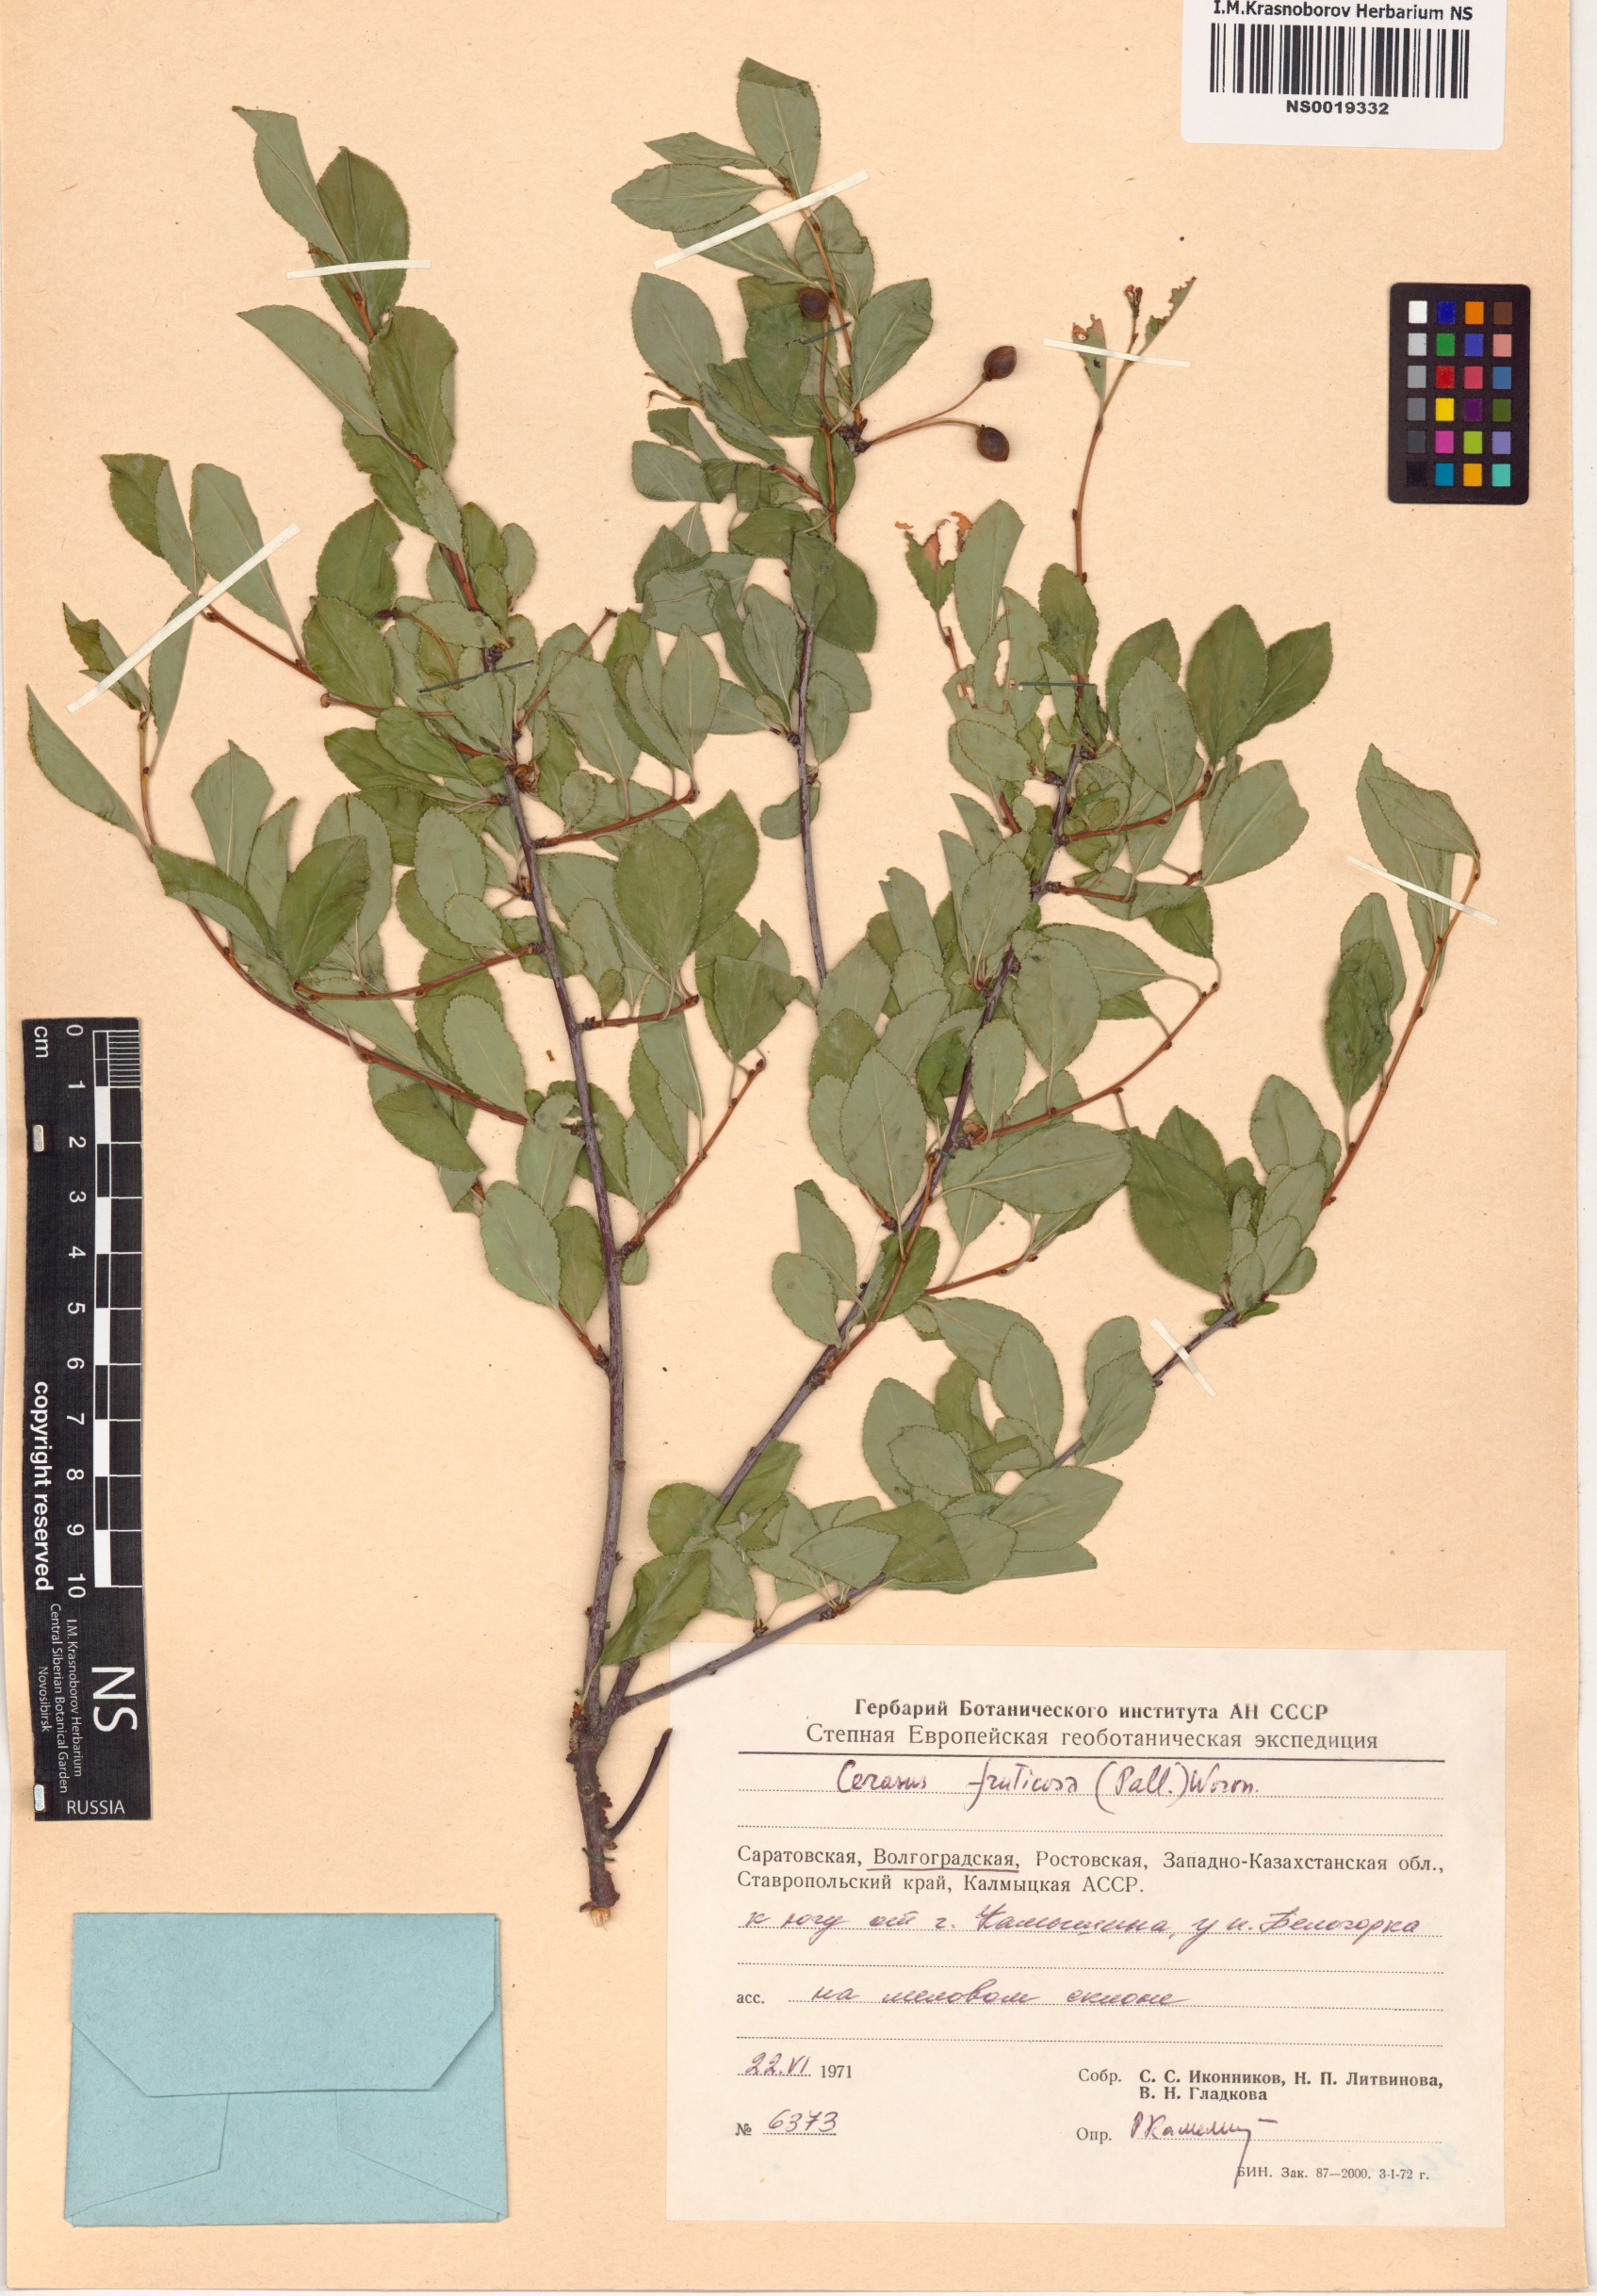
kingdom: Plantae
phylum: Tracheophyta
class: Magnoliopsida
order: Rosales
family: Rosaceae
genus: Prunus
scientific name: Prunus fruticosa
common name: European dwarf cherry
